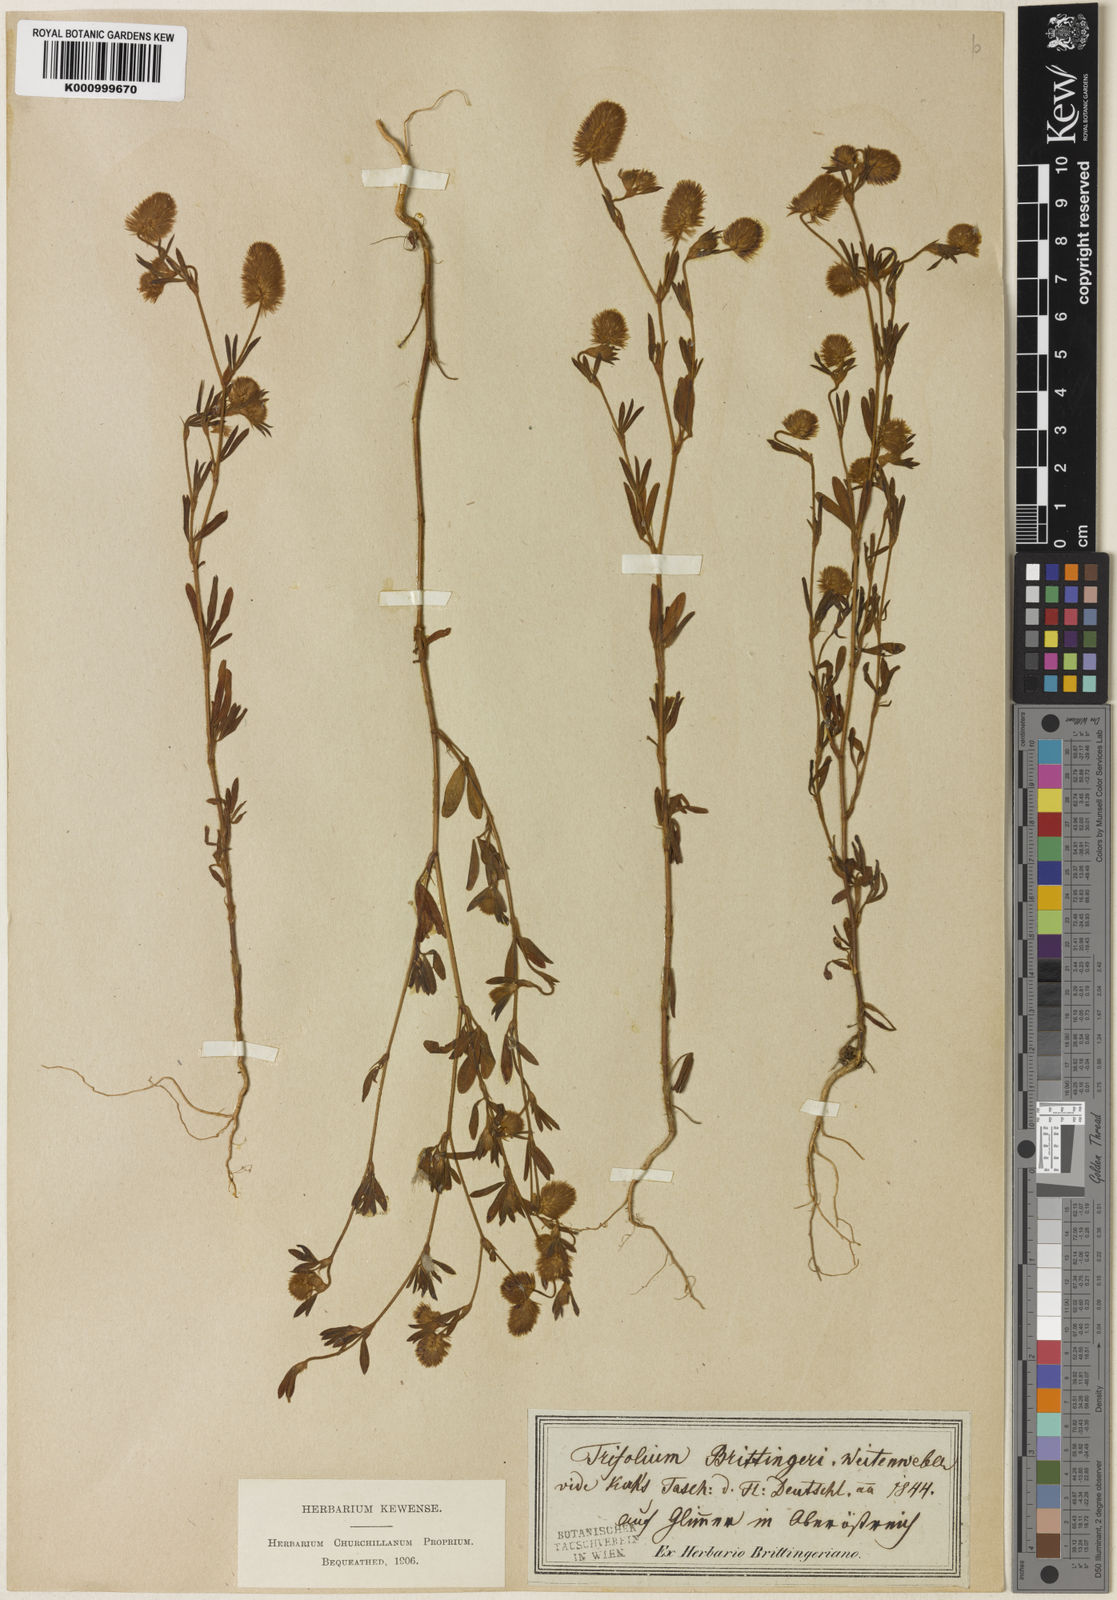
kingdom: Plantae
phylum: Tracheophyta
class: Magnoliopsida
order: Fabales
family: Fabaceae
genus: Trifolium
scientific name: Trifolium arvense
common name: Hare's-foot clover
